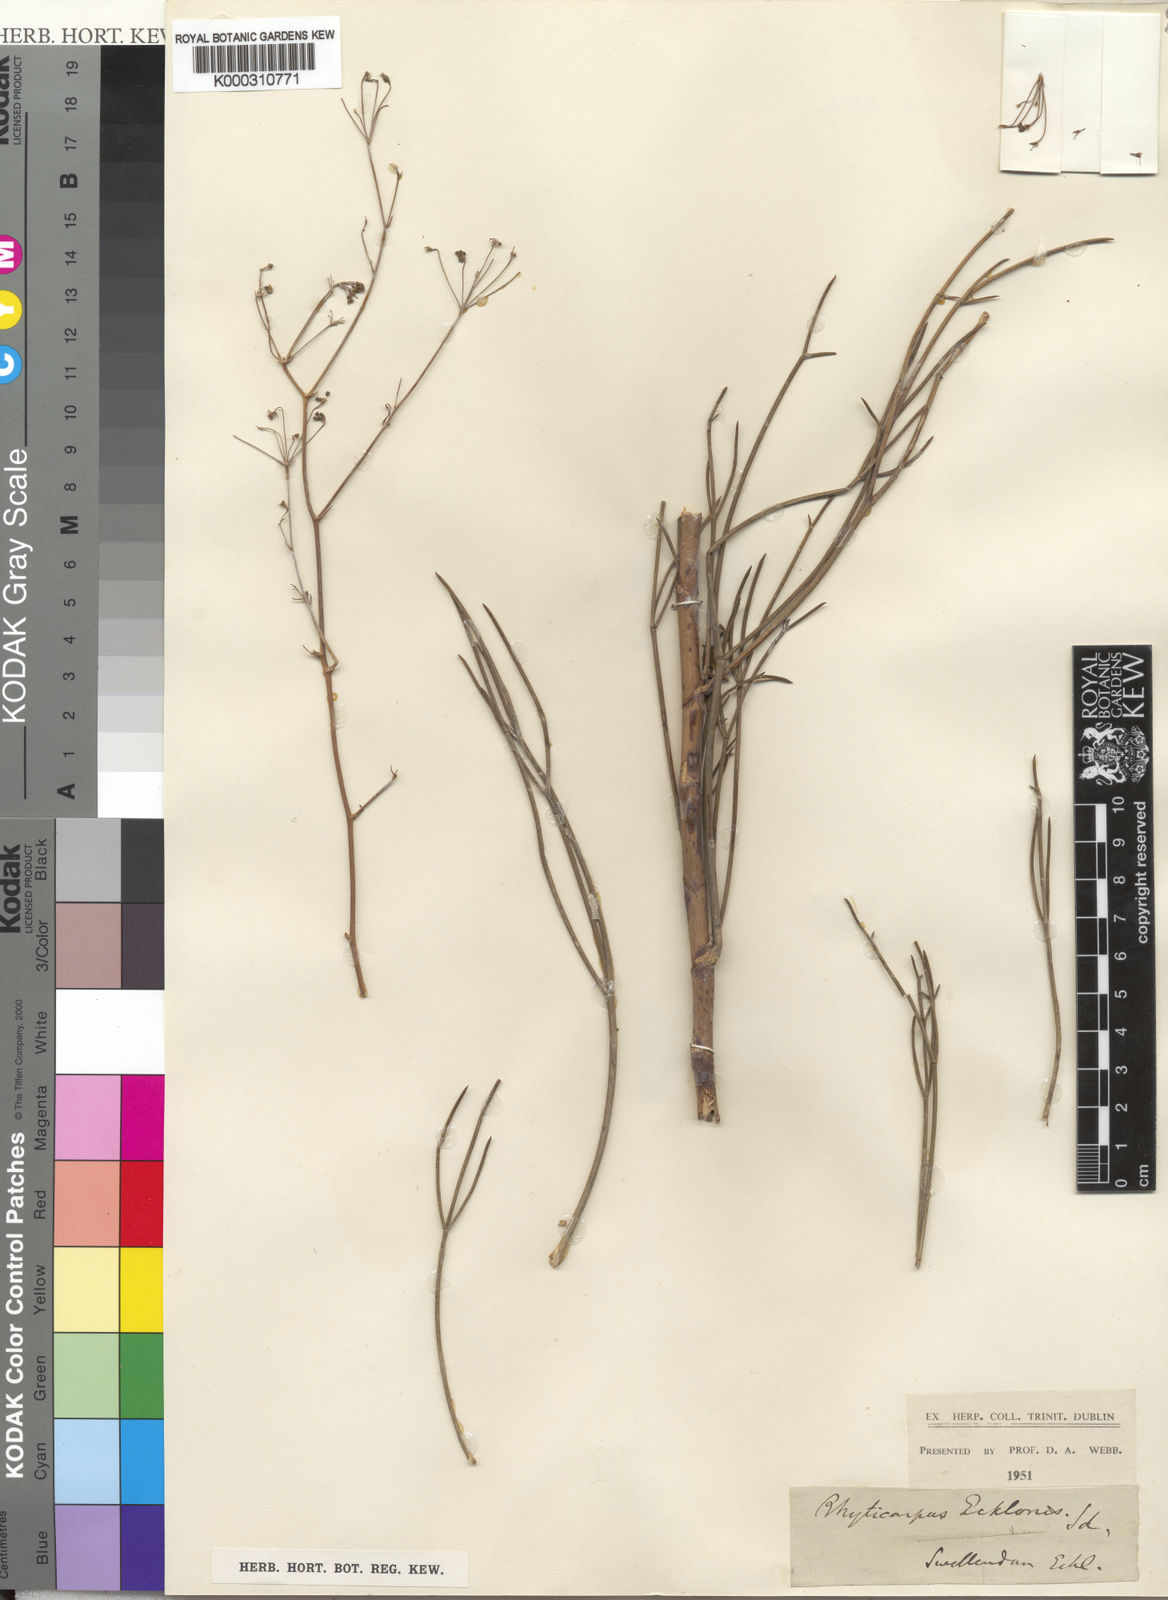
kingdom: Plantae
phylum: Tracheophyta
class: Magnoliopsida
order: Apiales
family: Apiaceae
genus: Anginon
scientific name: Anginon
